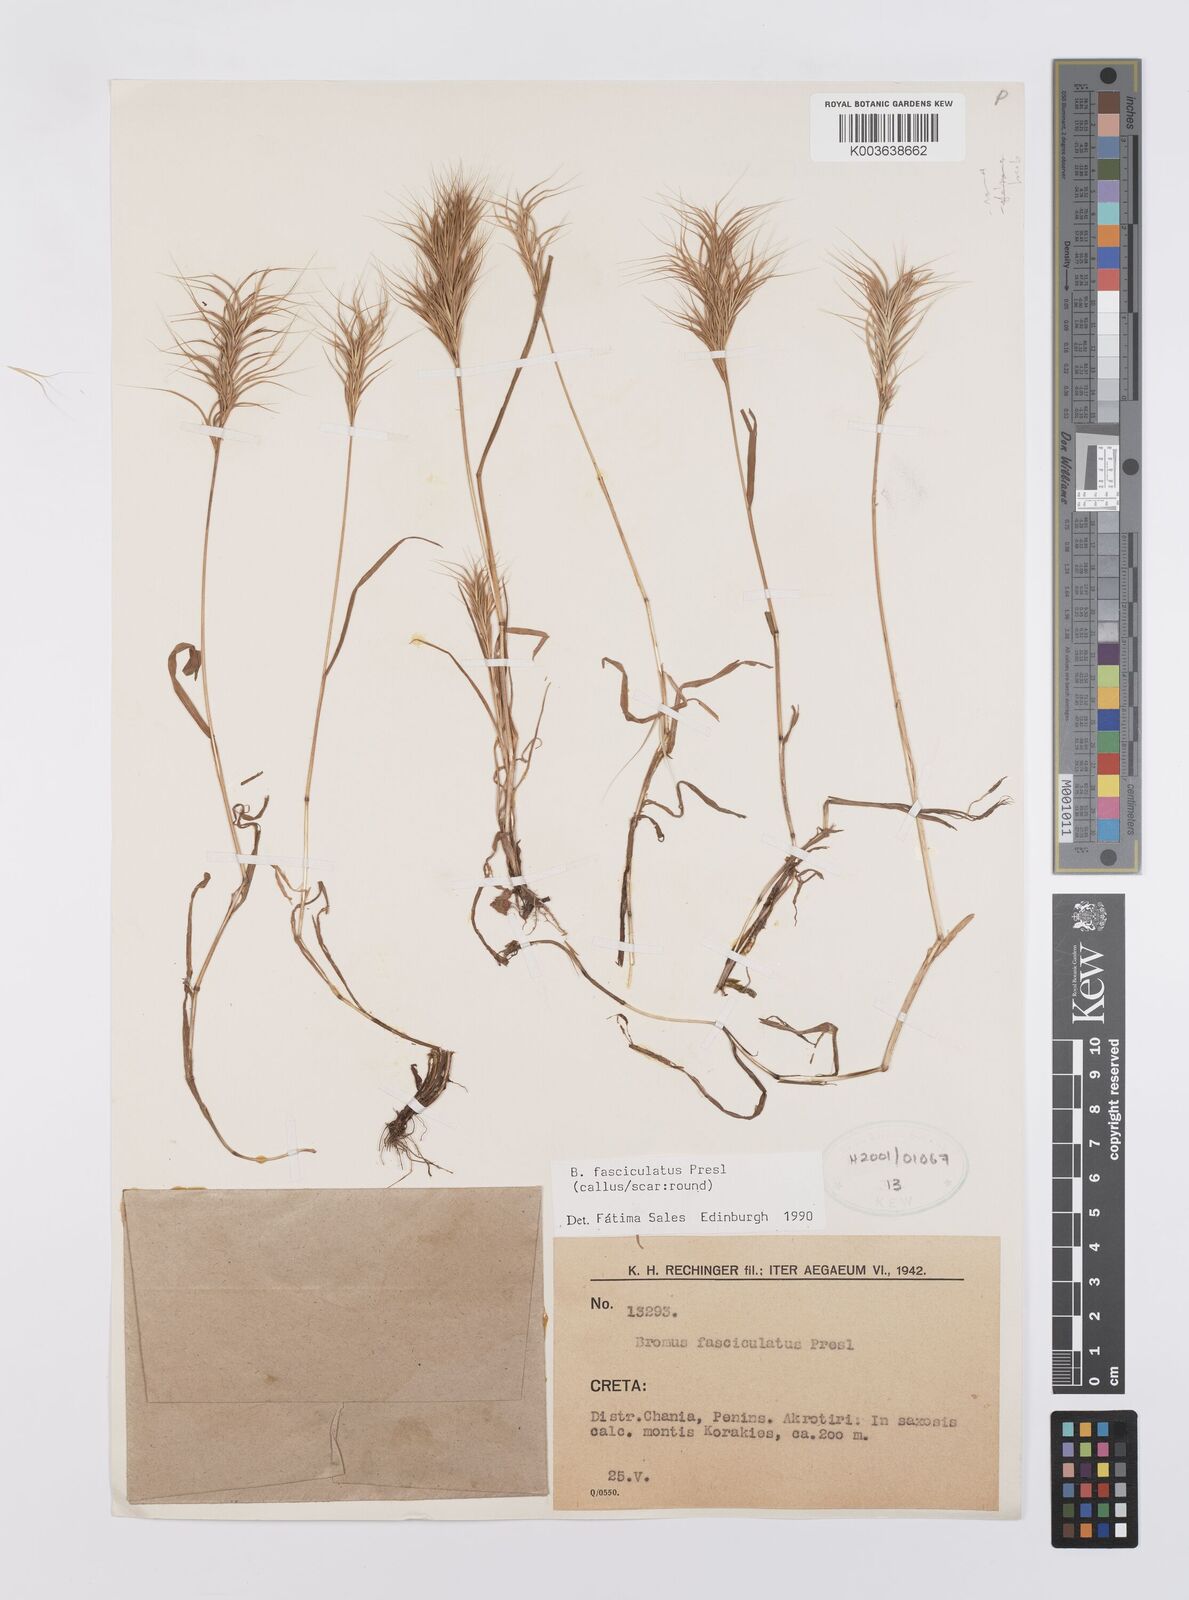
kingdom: Plantae
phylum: Tracheophyta
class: Liliopsida
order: Poales
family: Poaceae
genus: Bromus
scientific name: Bromus fasciculatus
